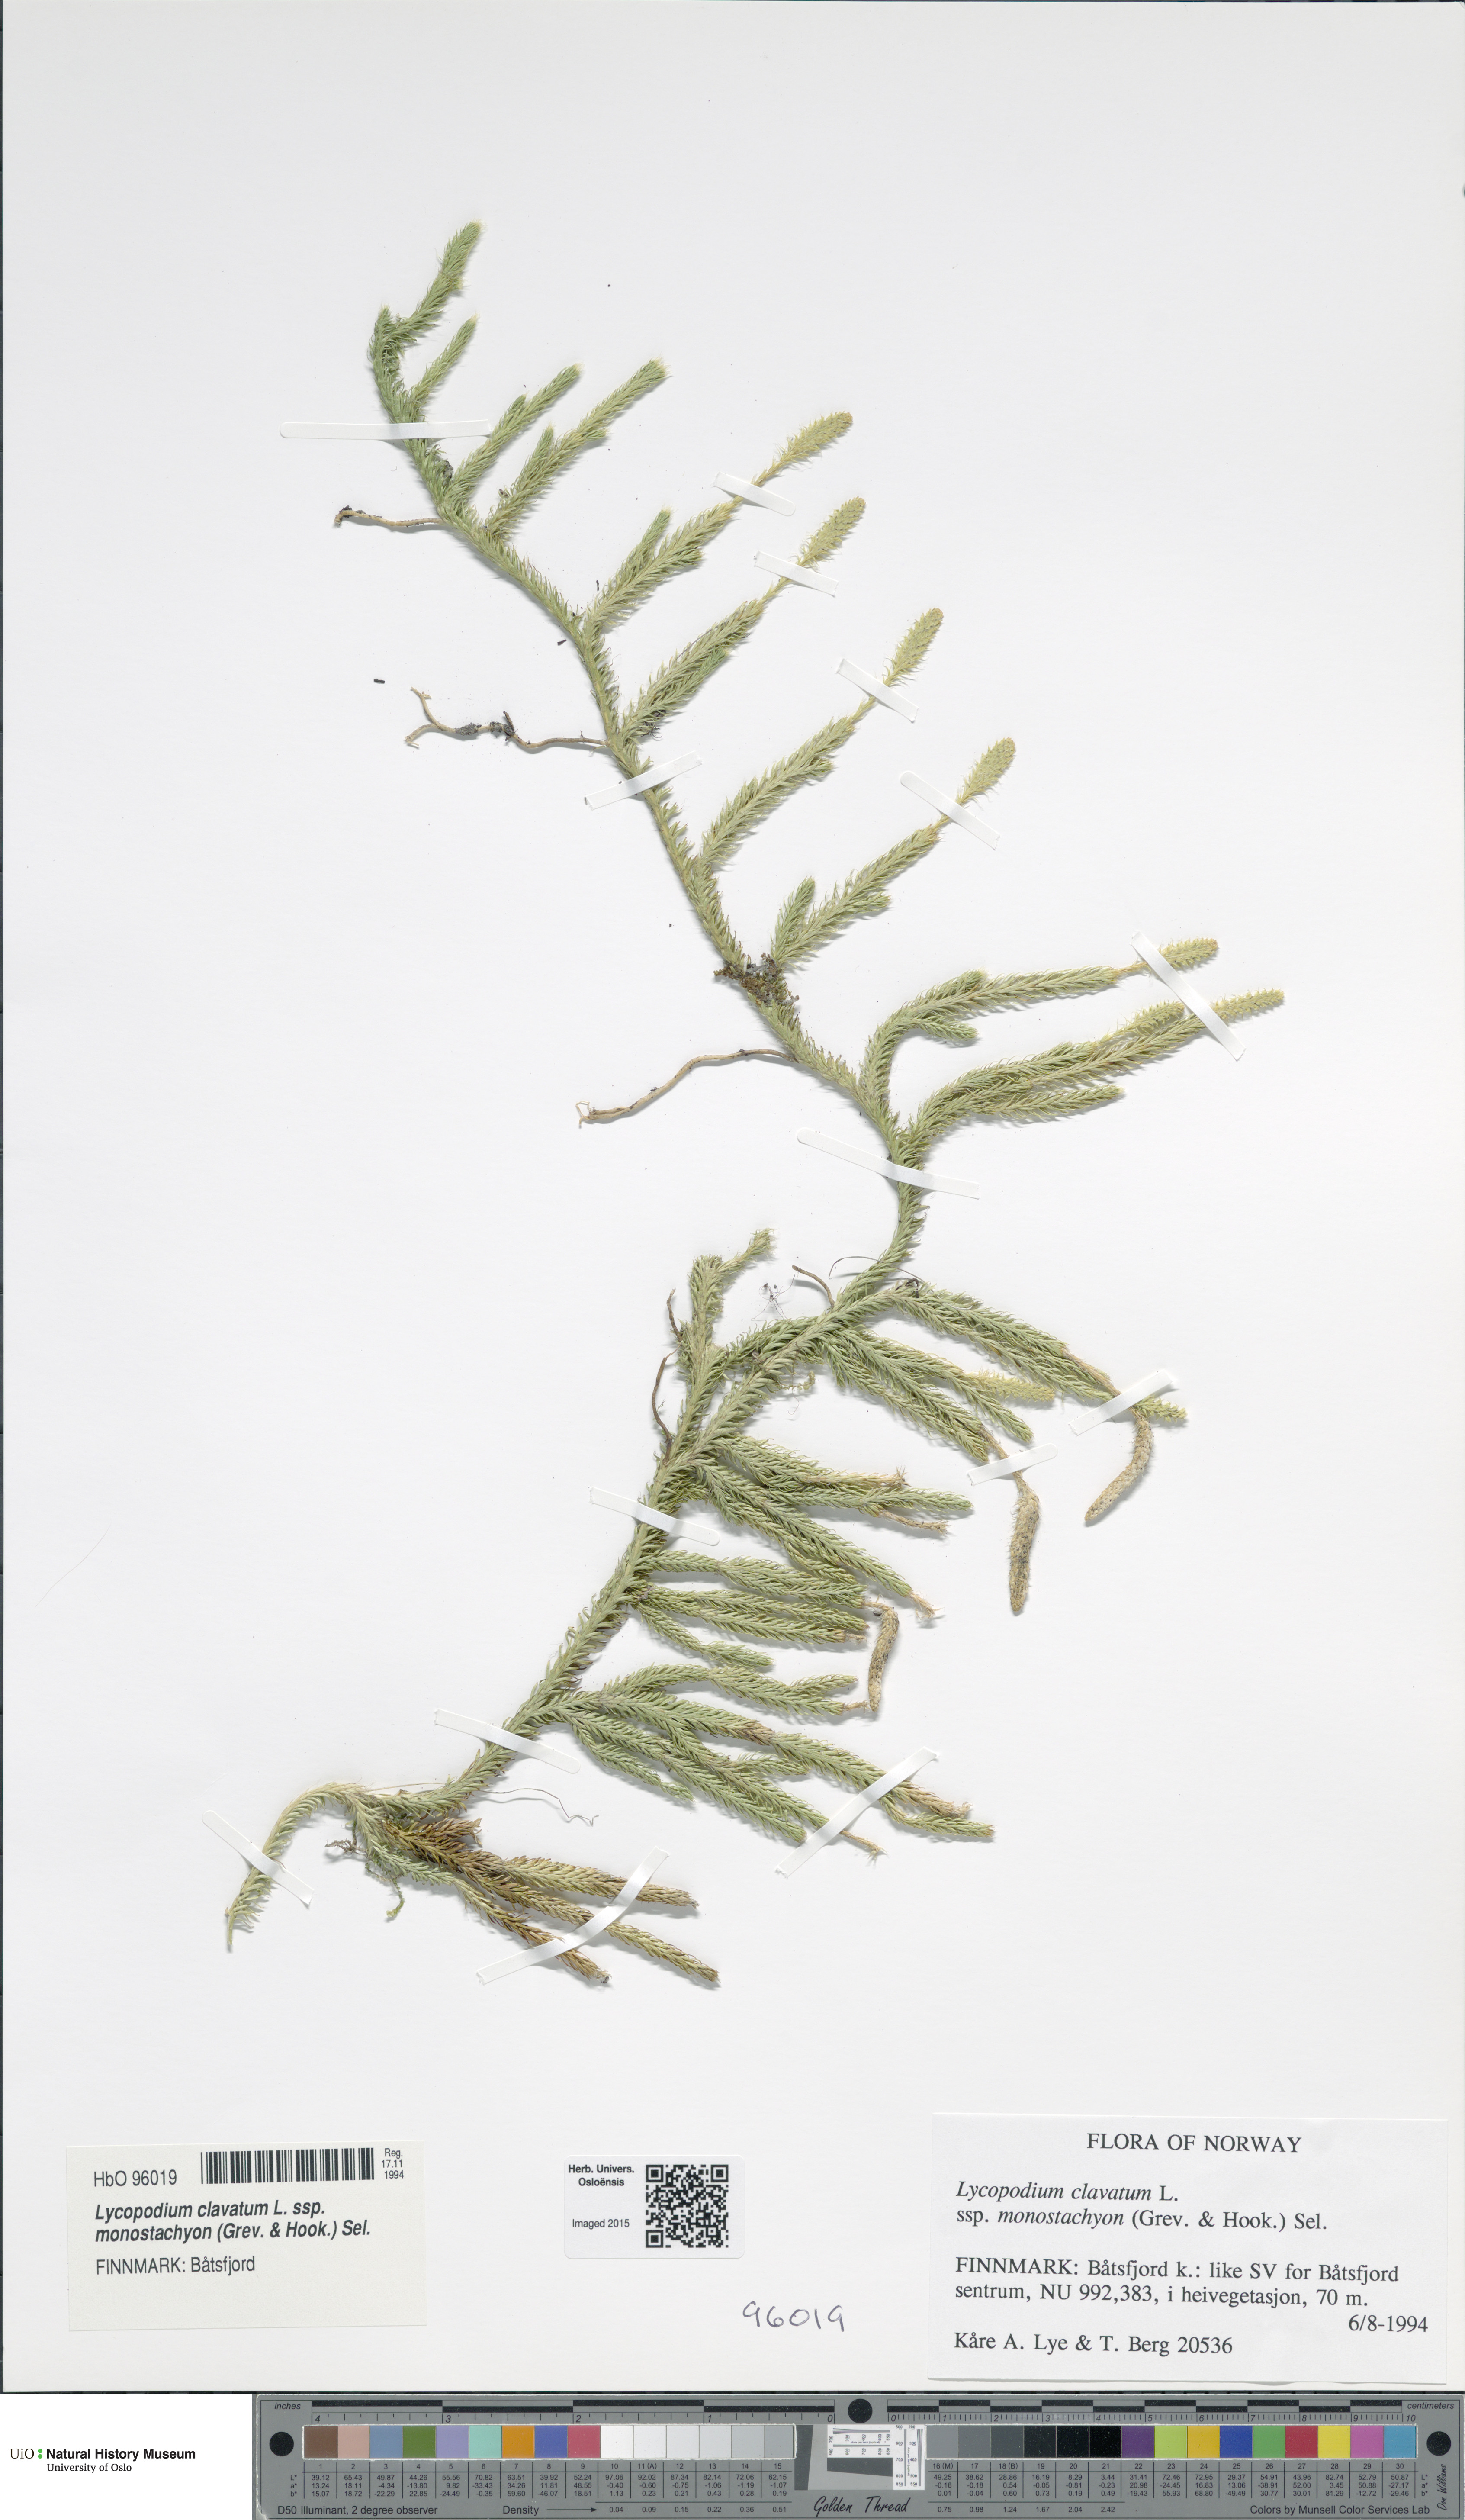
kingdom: Plantae
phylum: Tracheophyta
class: Lycopodiopsida
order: Lycopodiales
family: Lycopodiaceae
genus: Lycopodium
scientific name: Lycopodium lagopus
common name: One-cone clubmoss
